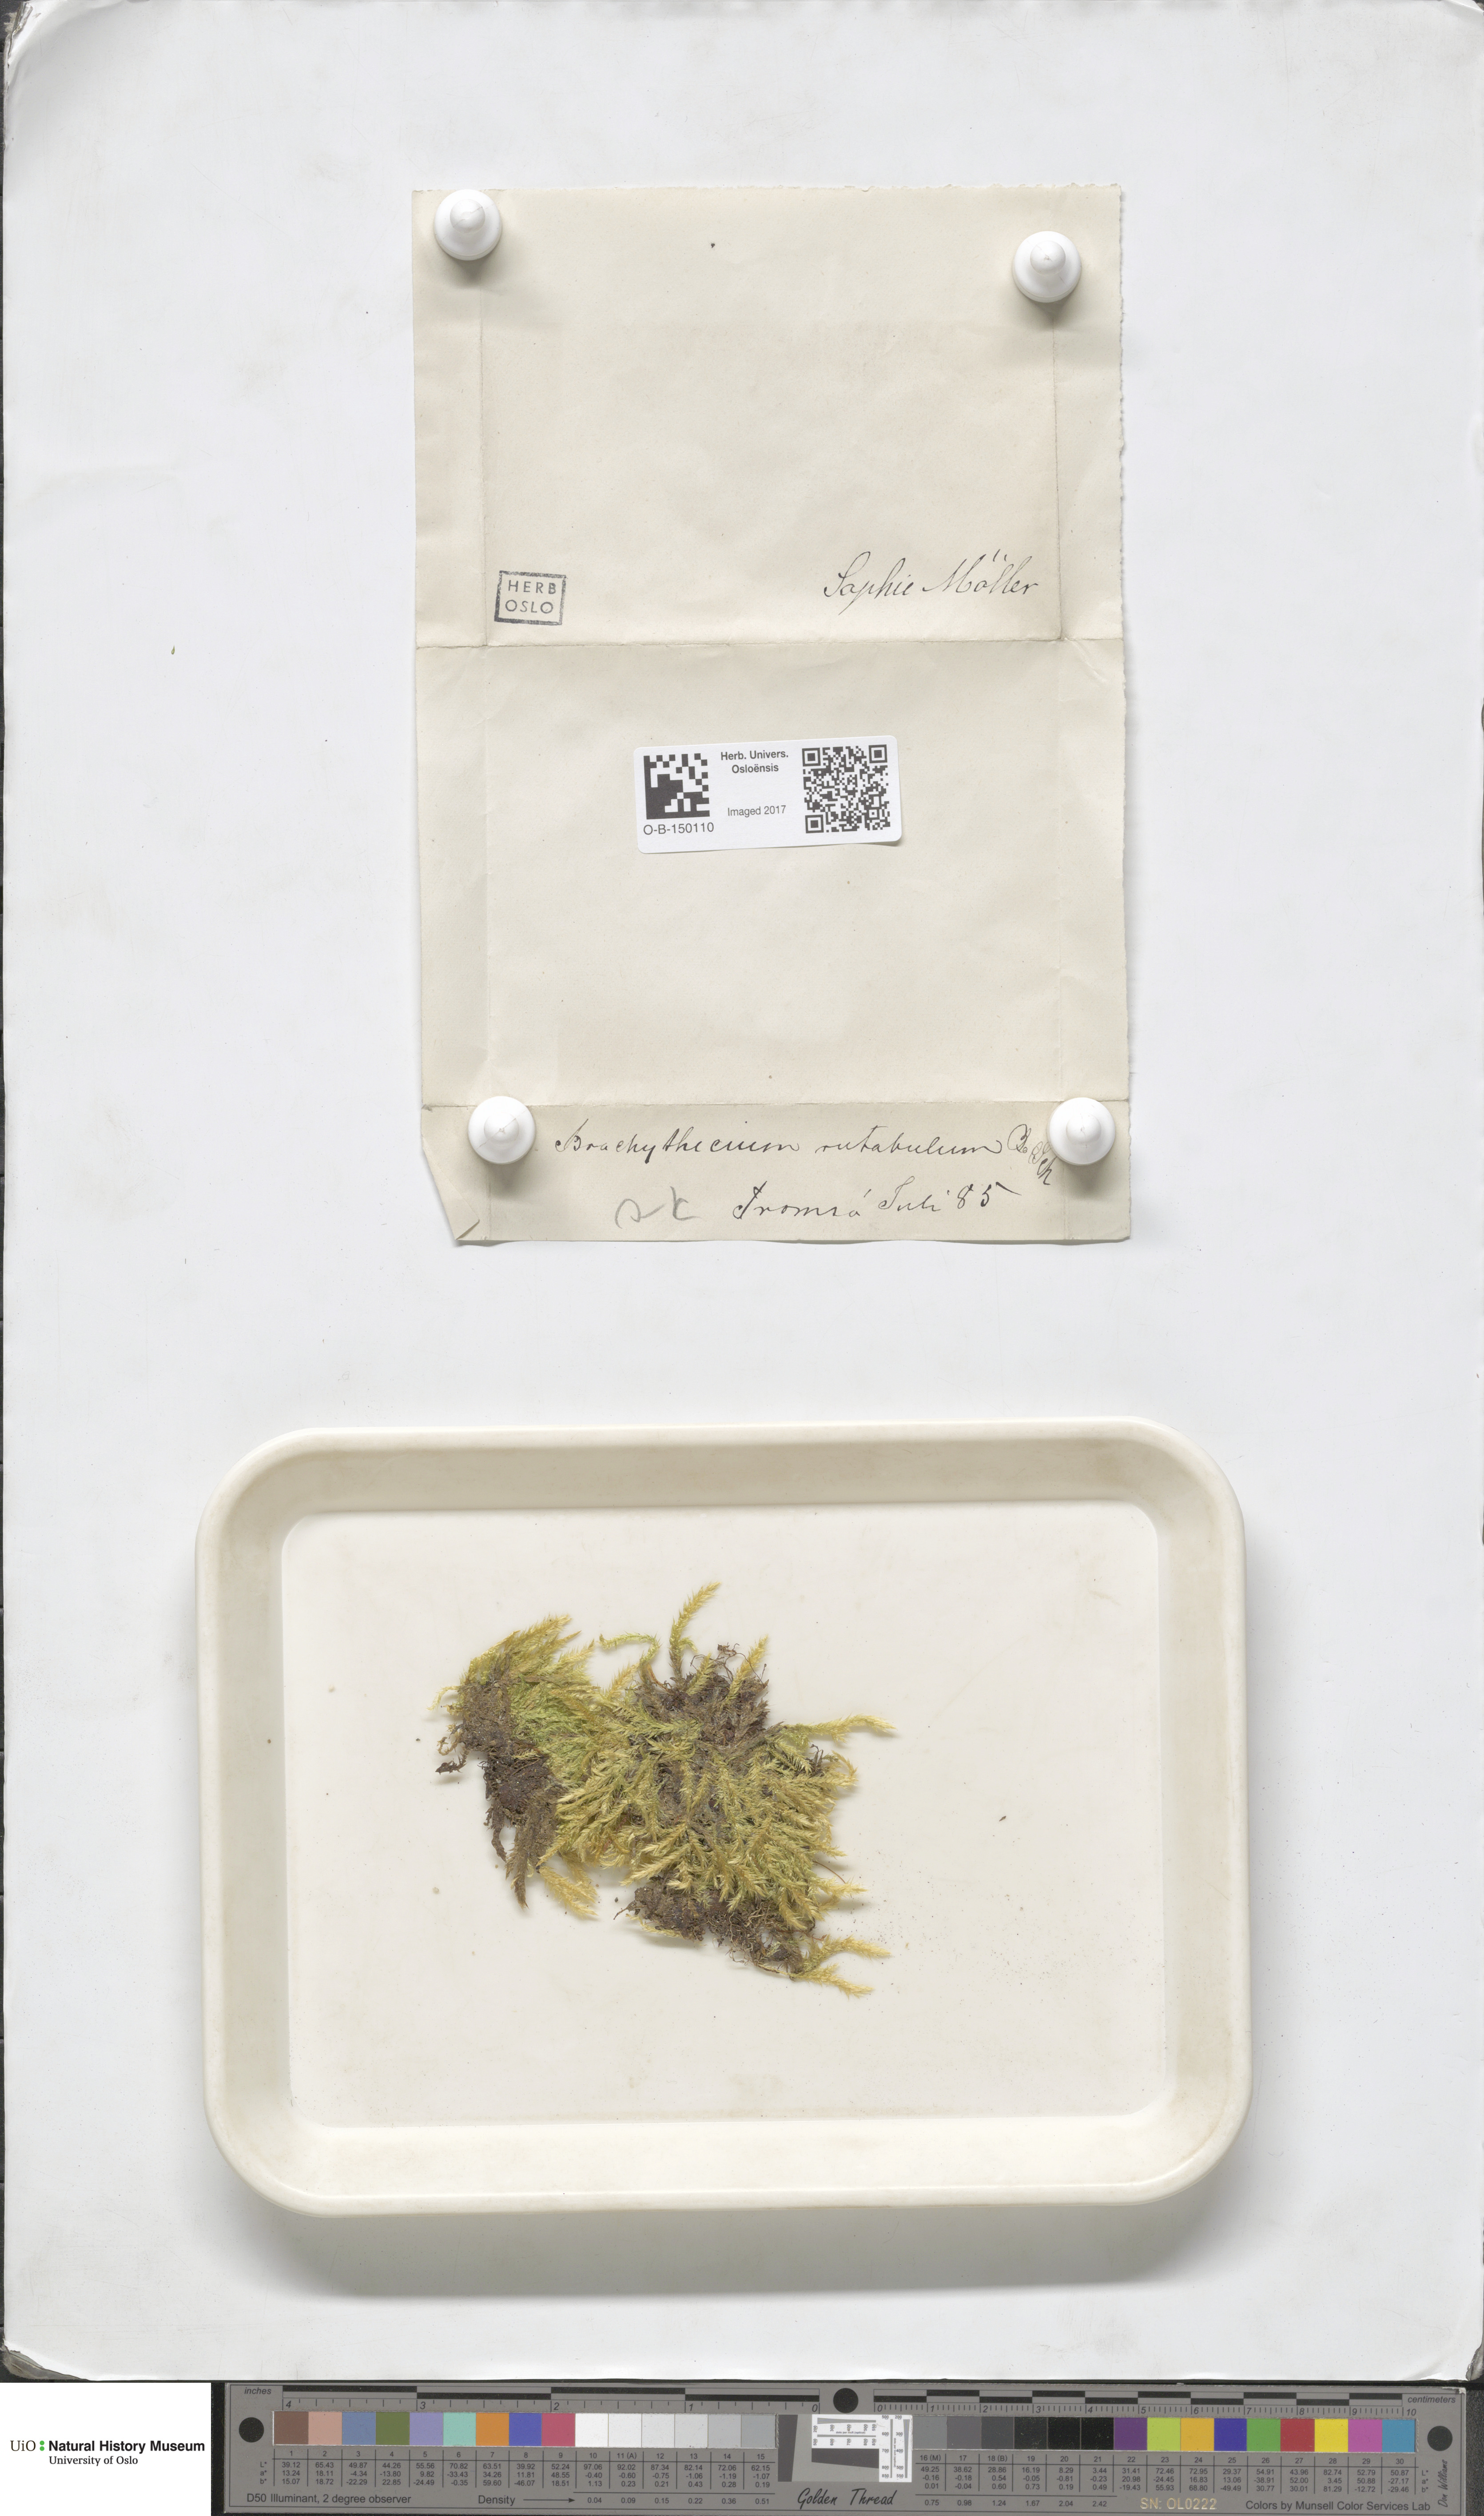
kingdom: Plantae
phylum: Bryophyta
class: Bryopsida
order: Hypnales
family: Brachytheciaceae
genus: Brachythecium
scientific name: Brachythecium rutabulum
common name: Rough-stalked feather-moss
